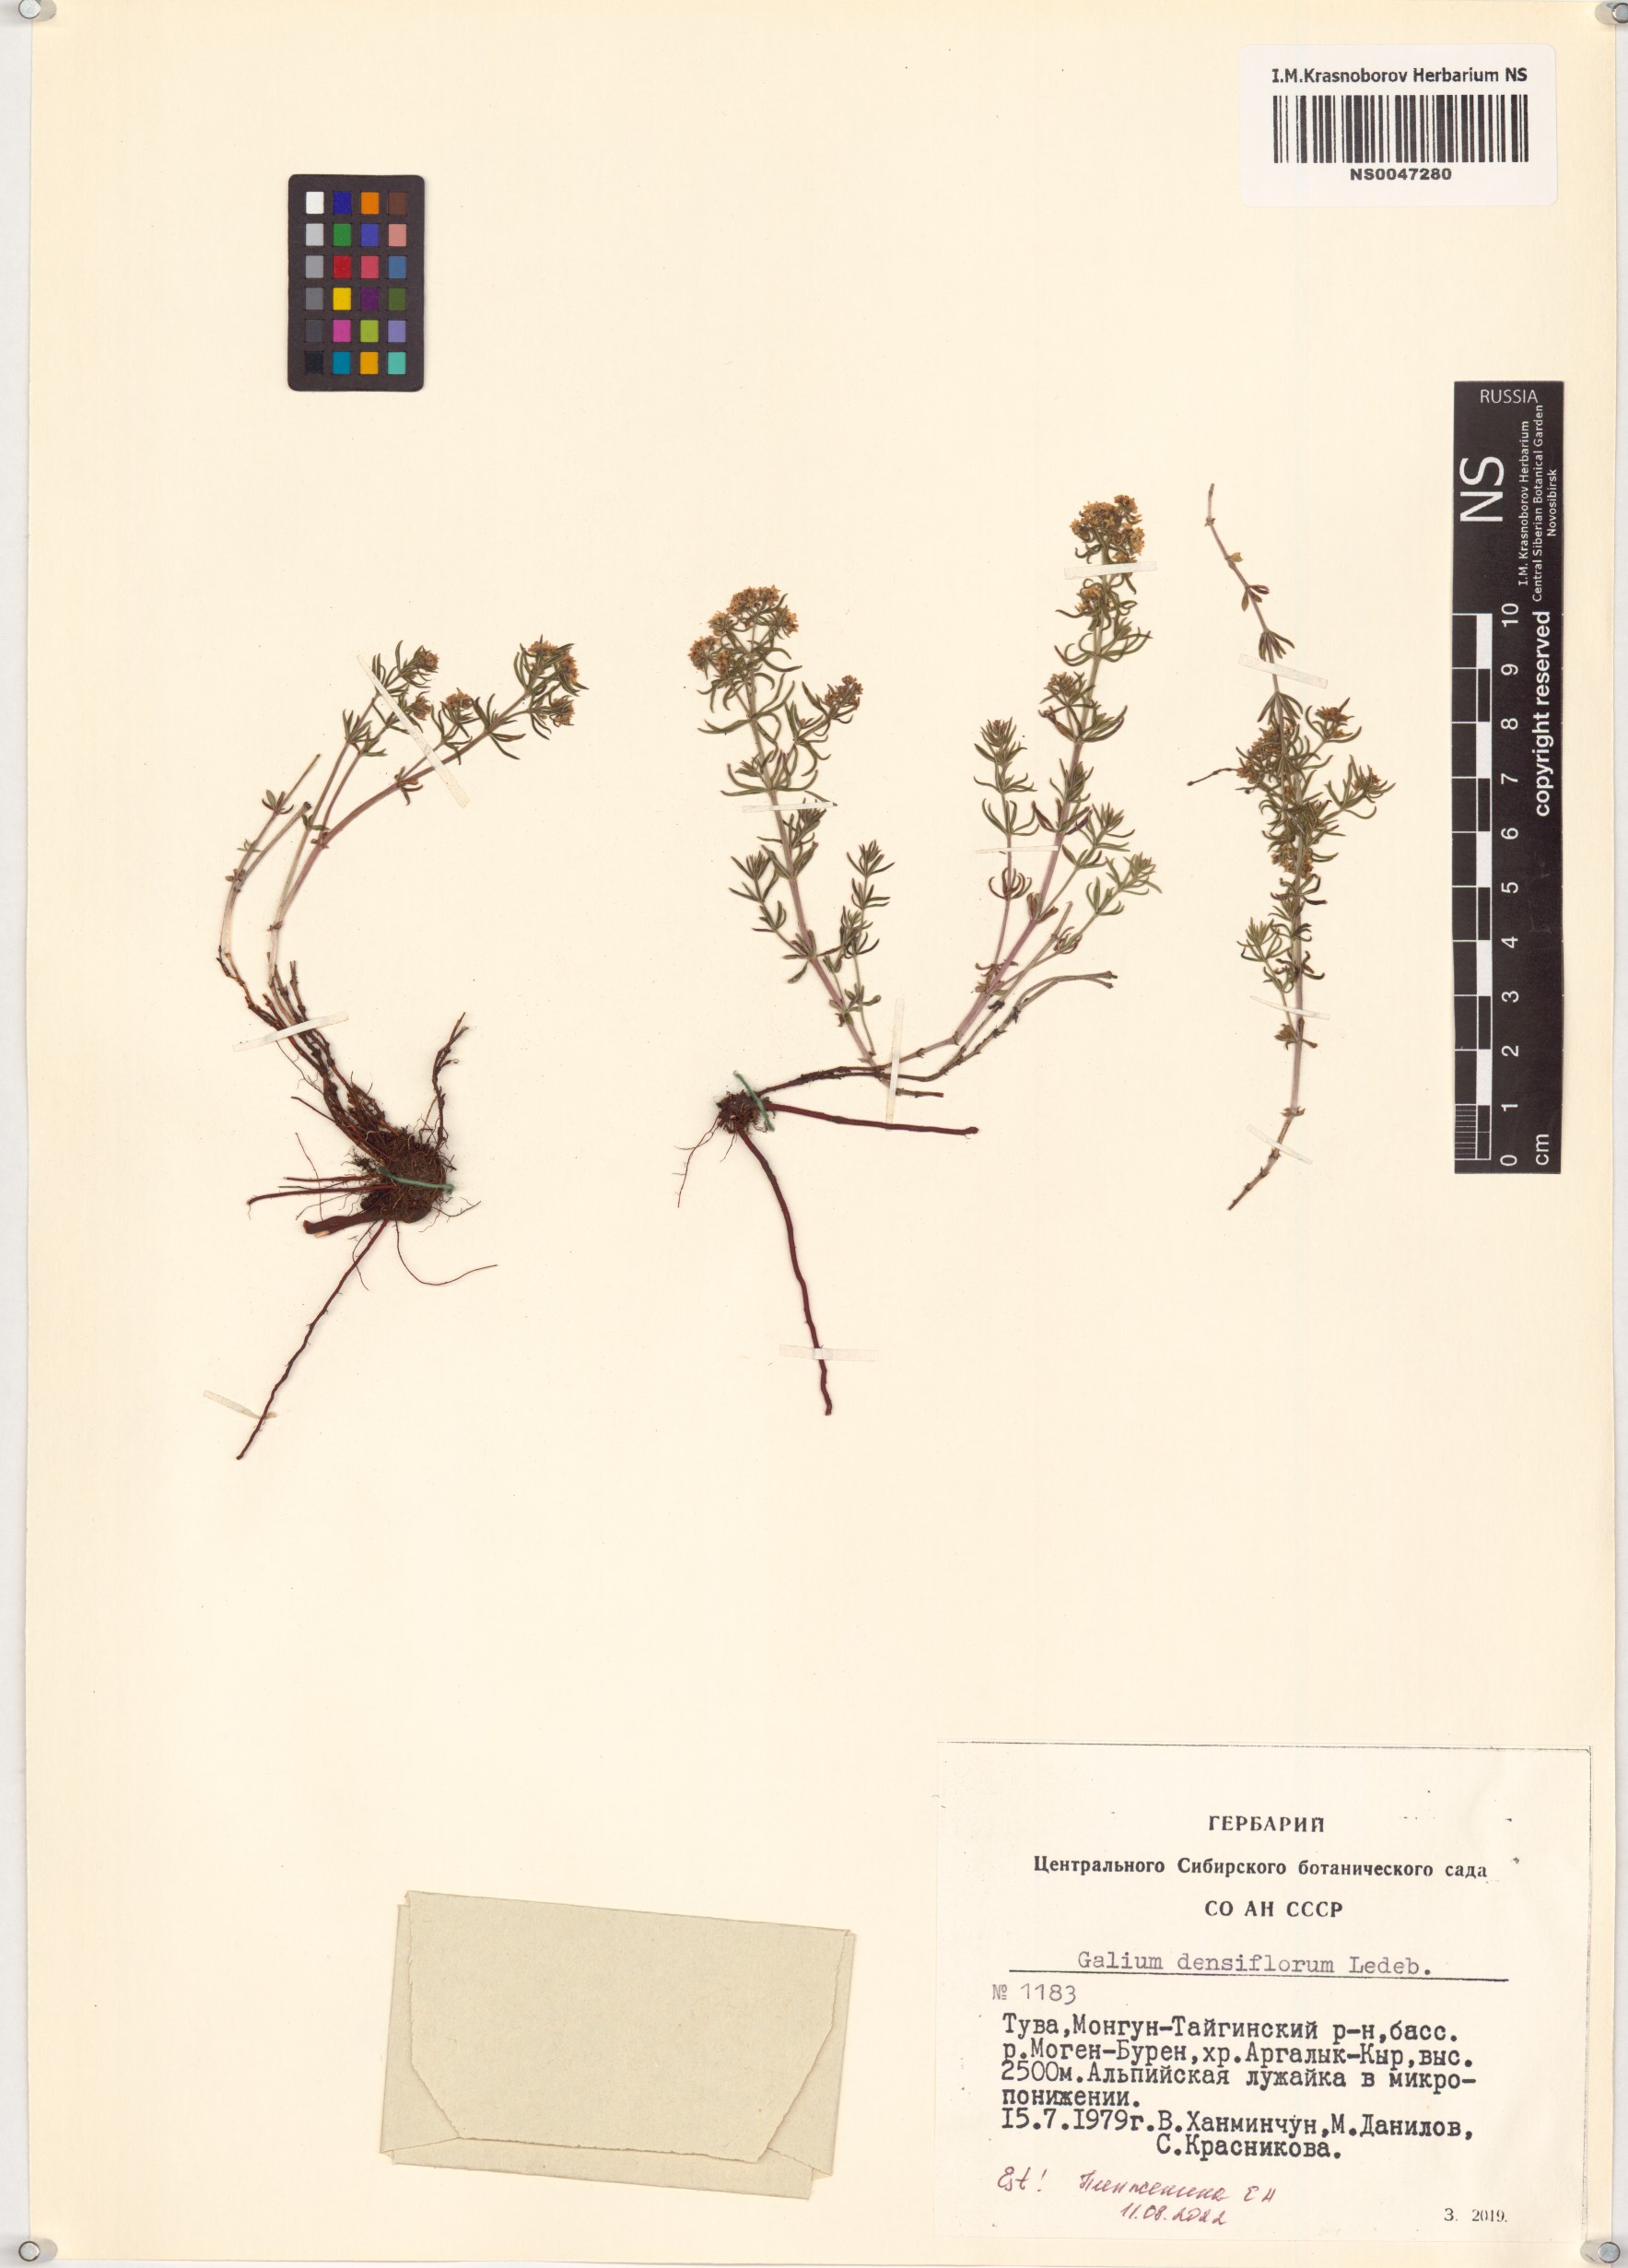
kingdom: Plantae
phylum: Tracheophyta
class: Magnoliopsida
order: Gentianales
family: Rubiaceae
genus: Galium
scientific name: Galium densiflorum
